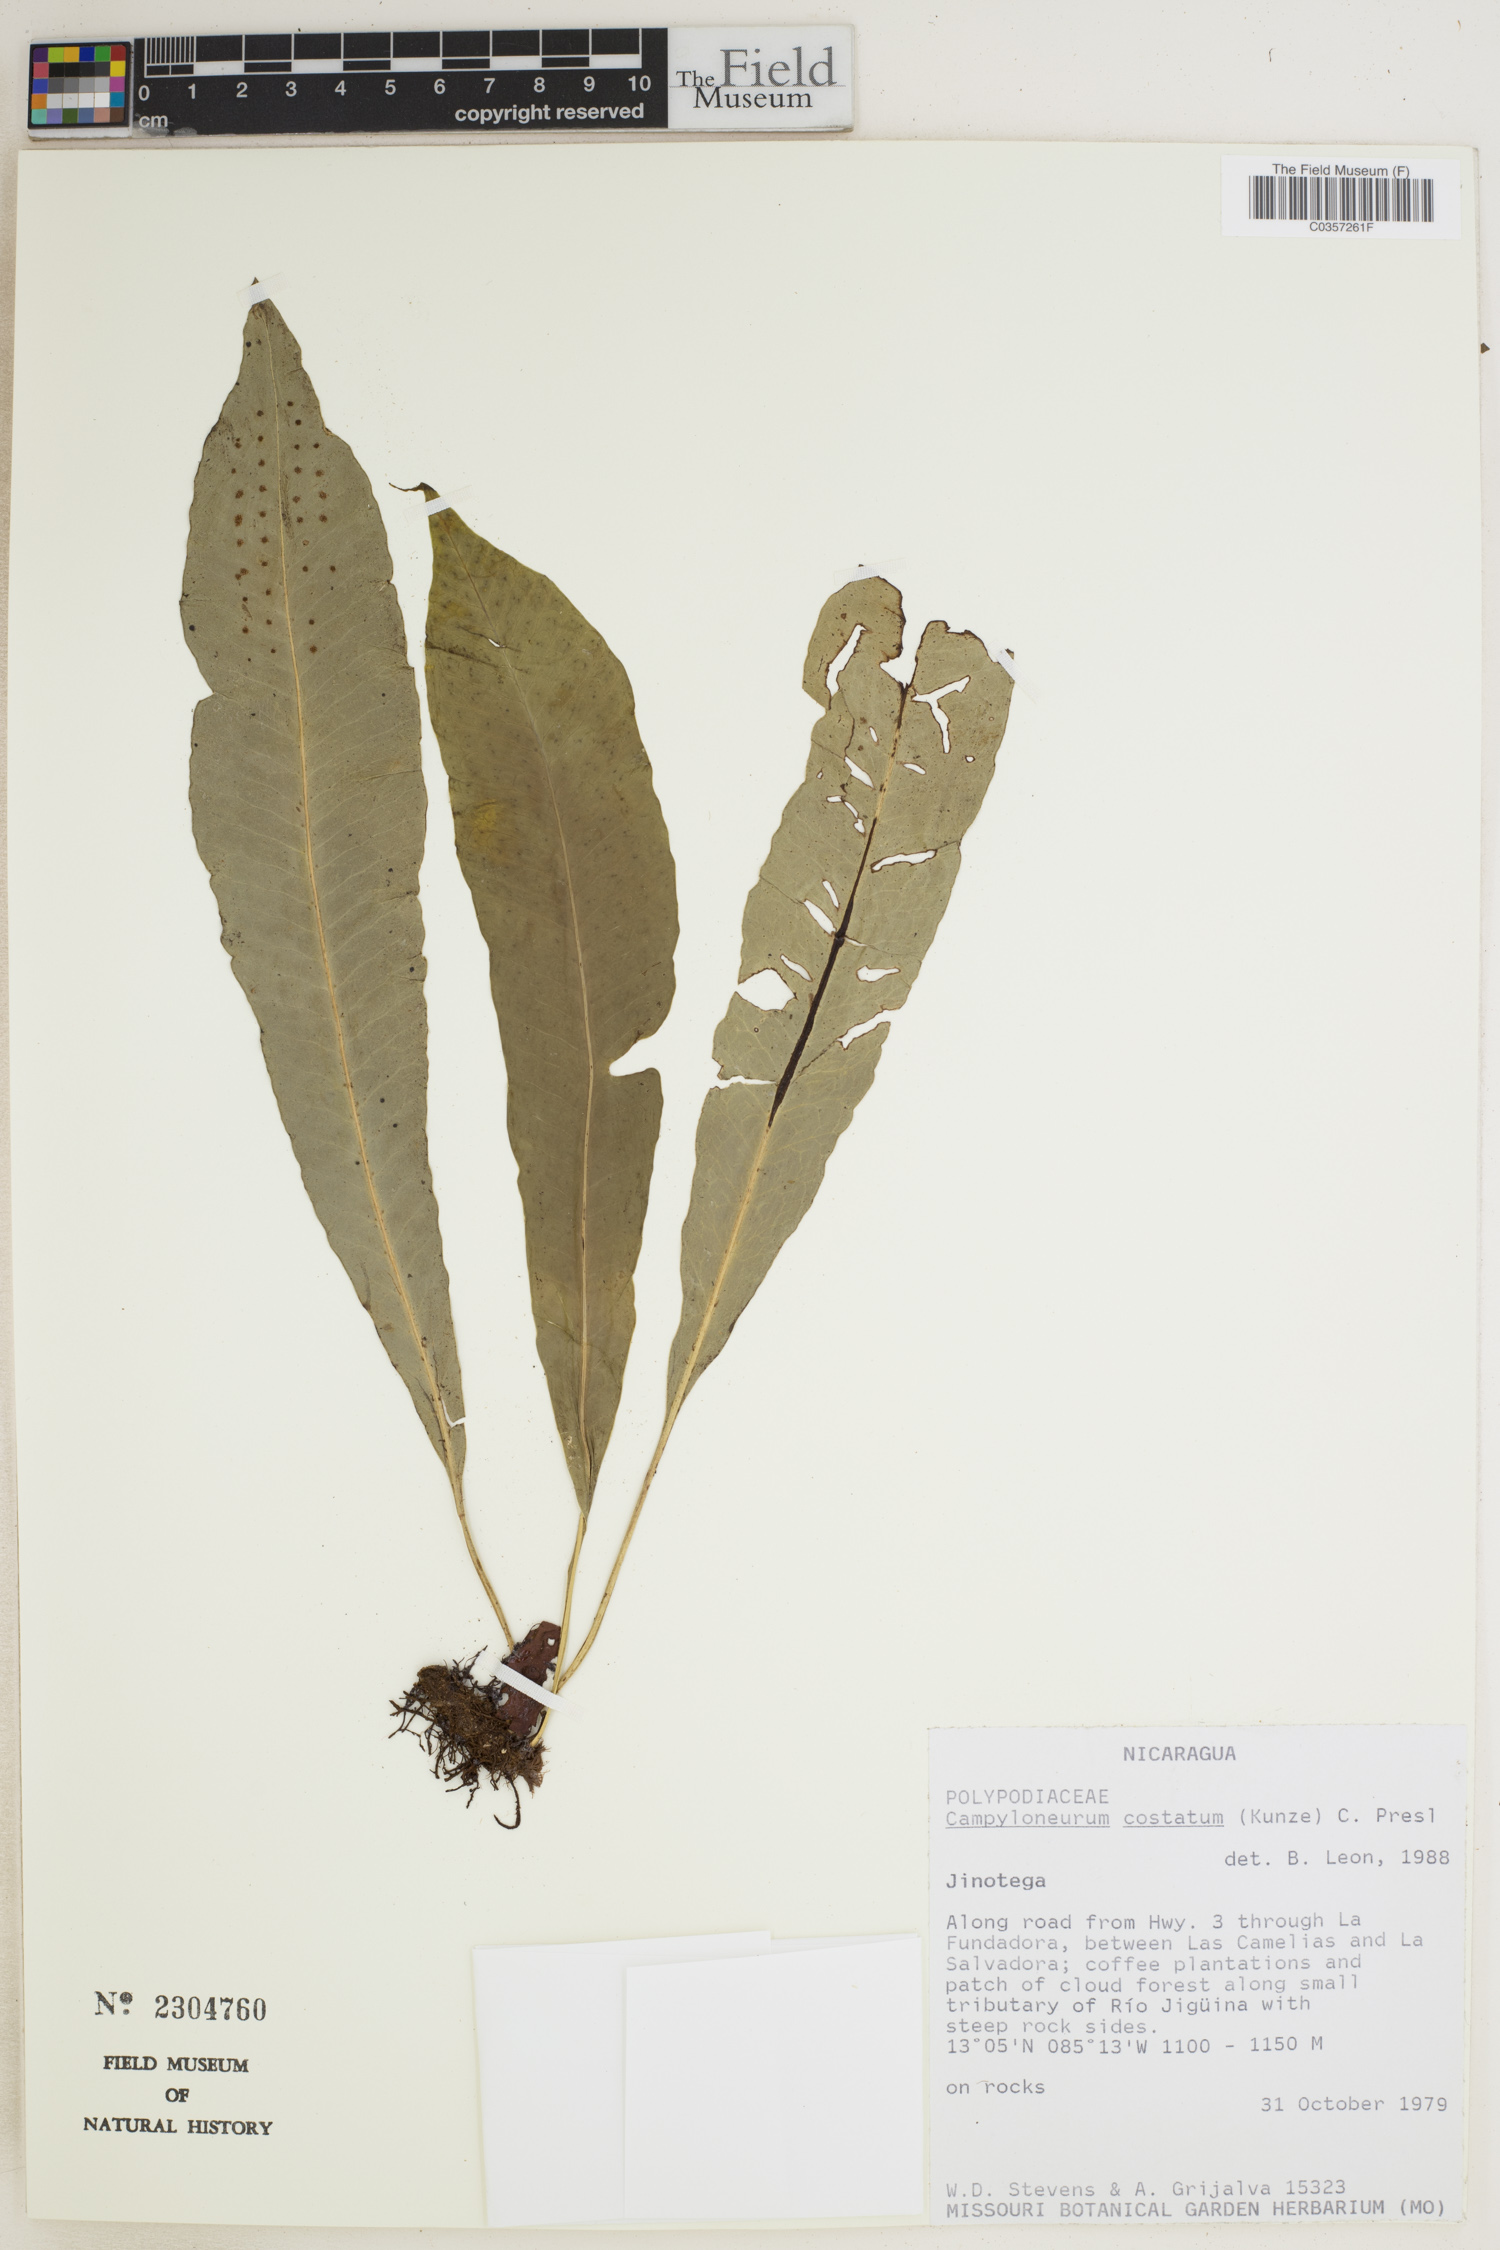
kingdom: Plantae
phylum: Tracheophyta
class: Polypodiopsida
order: Polypodiales
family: Polypodiaceae
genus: Campyloneurum
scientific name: Campyloneurum costatum
